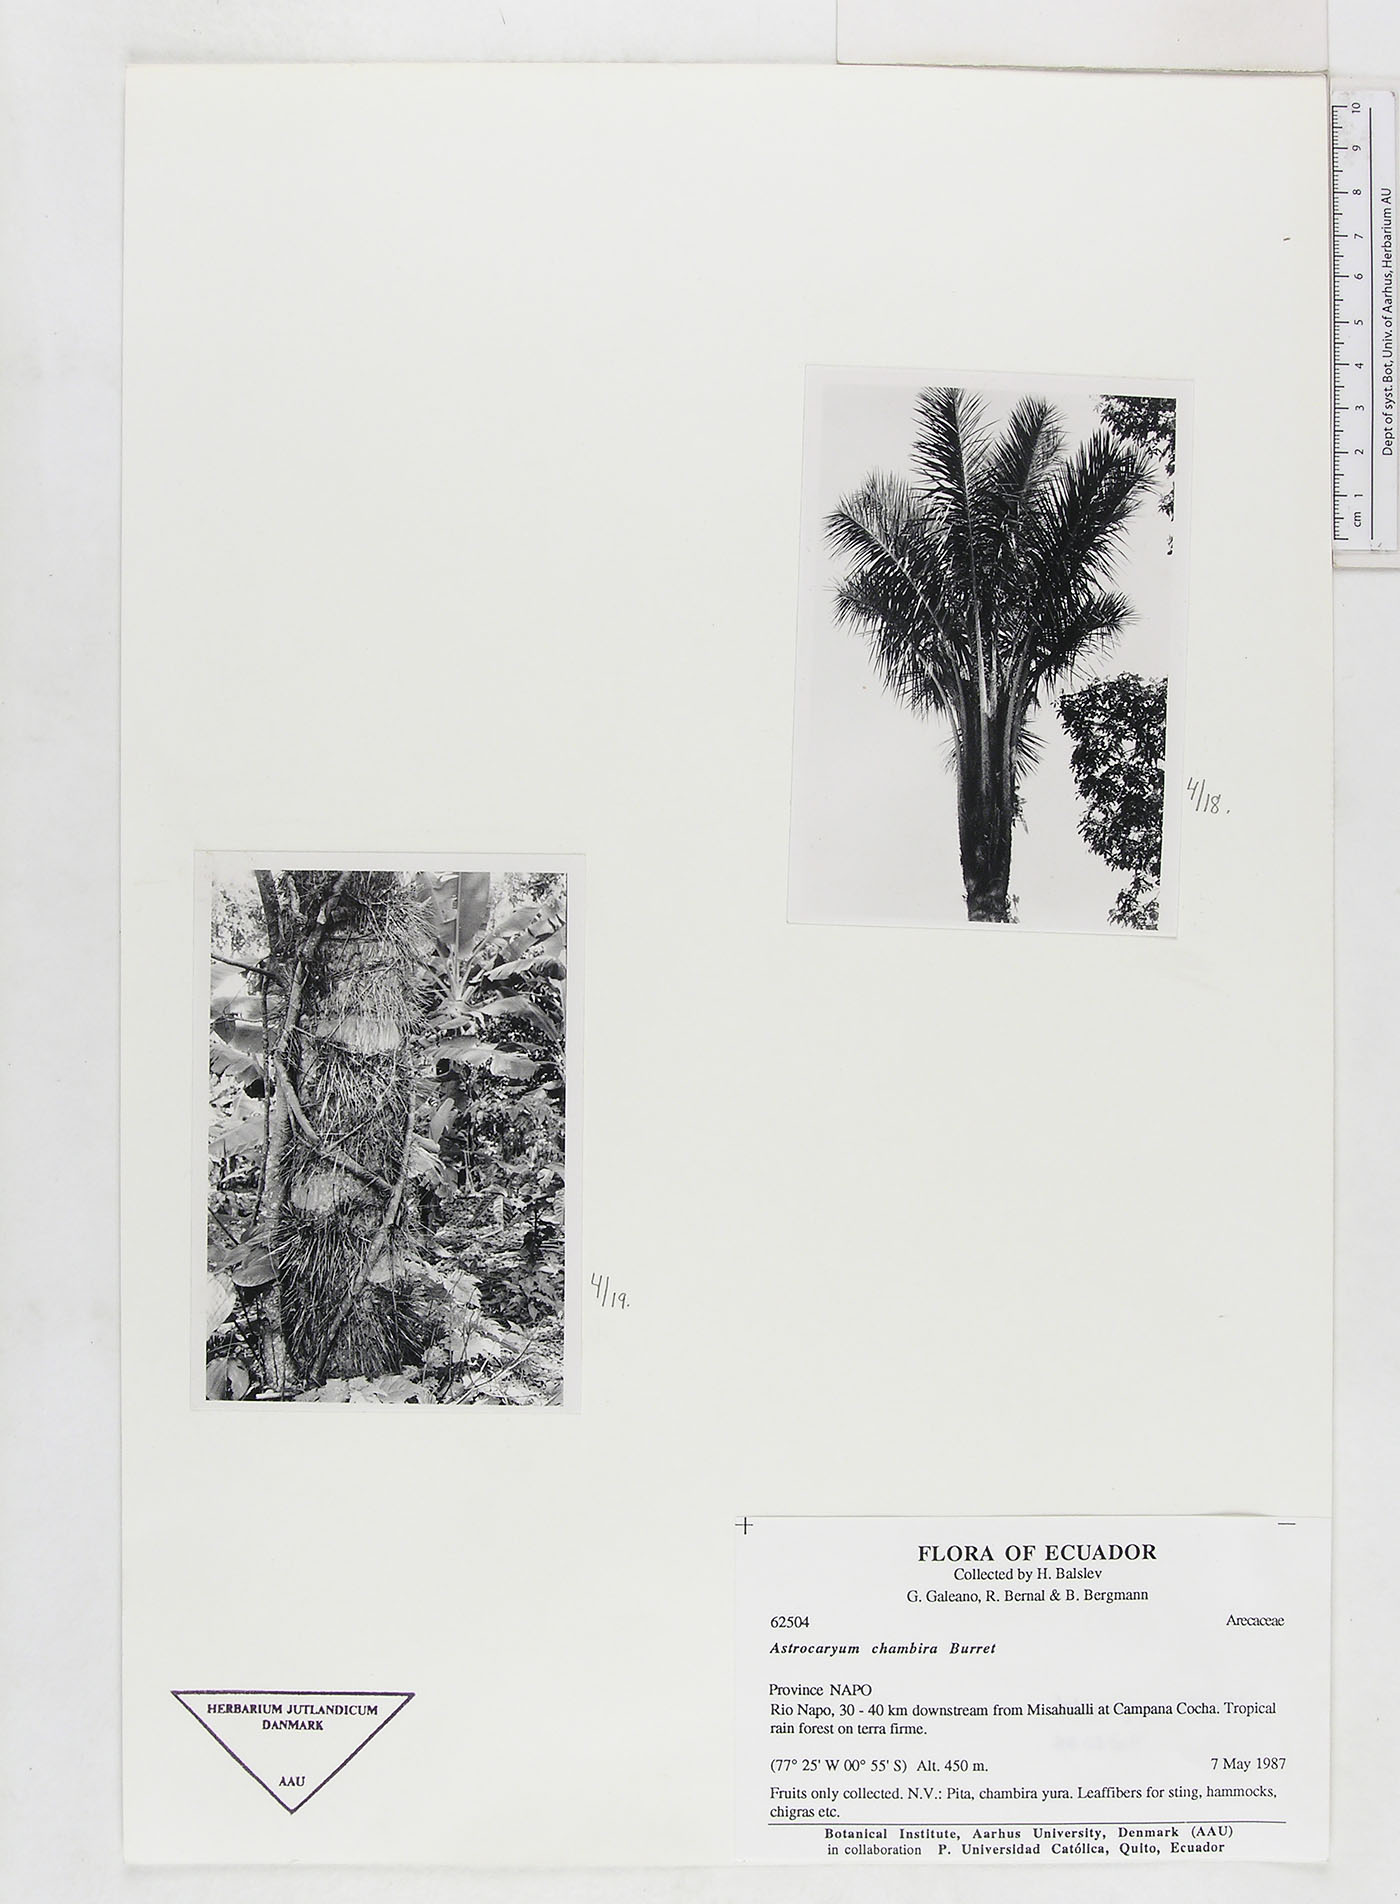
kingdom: Plantae
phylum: Tracheophyta
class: Liliopsida
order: Arecales
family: Arecaceae
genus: Astrocaryum
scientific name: Astrocaryum chambira
